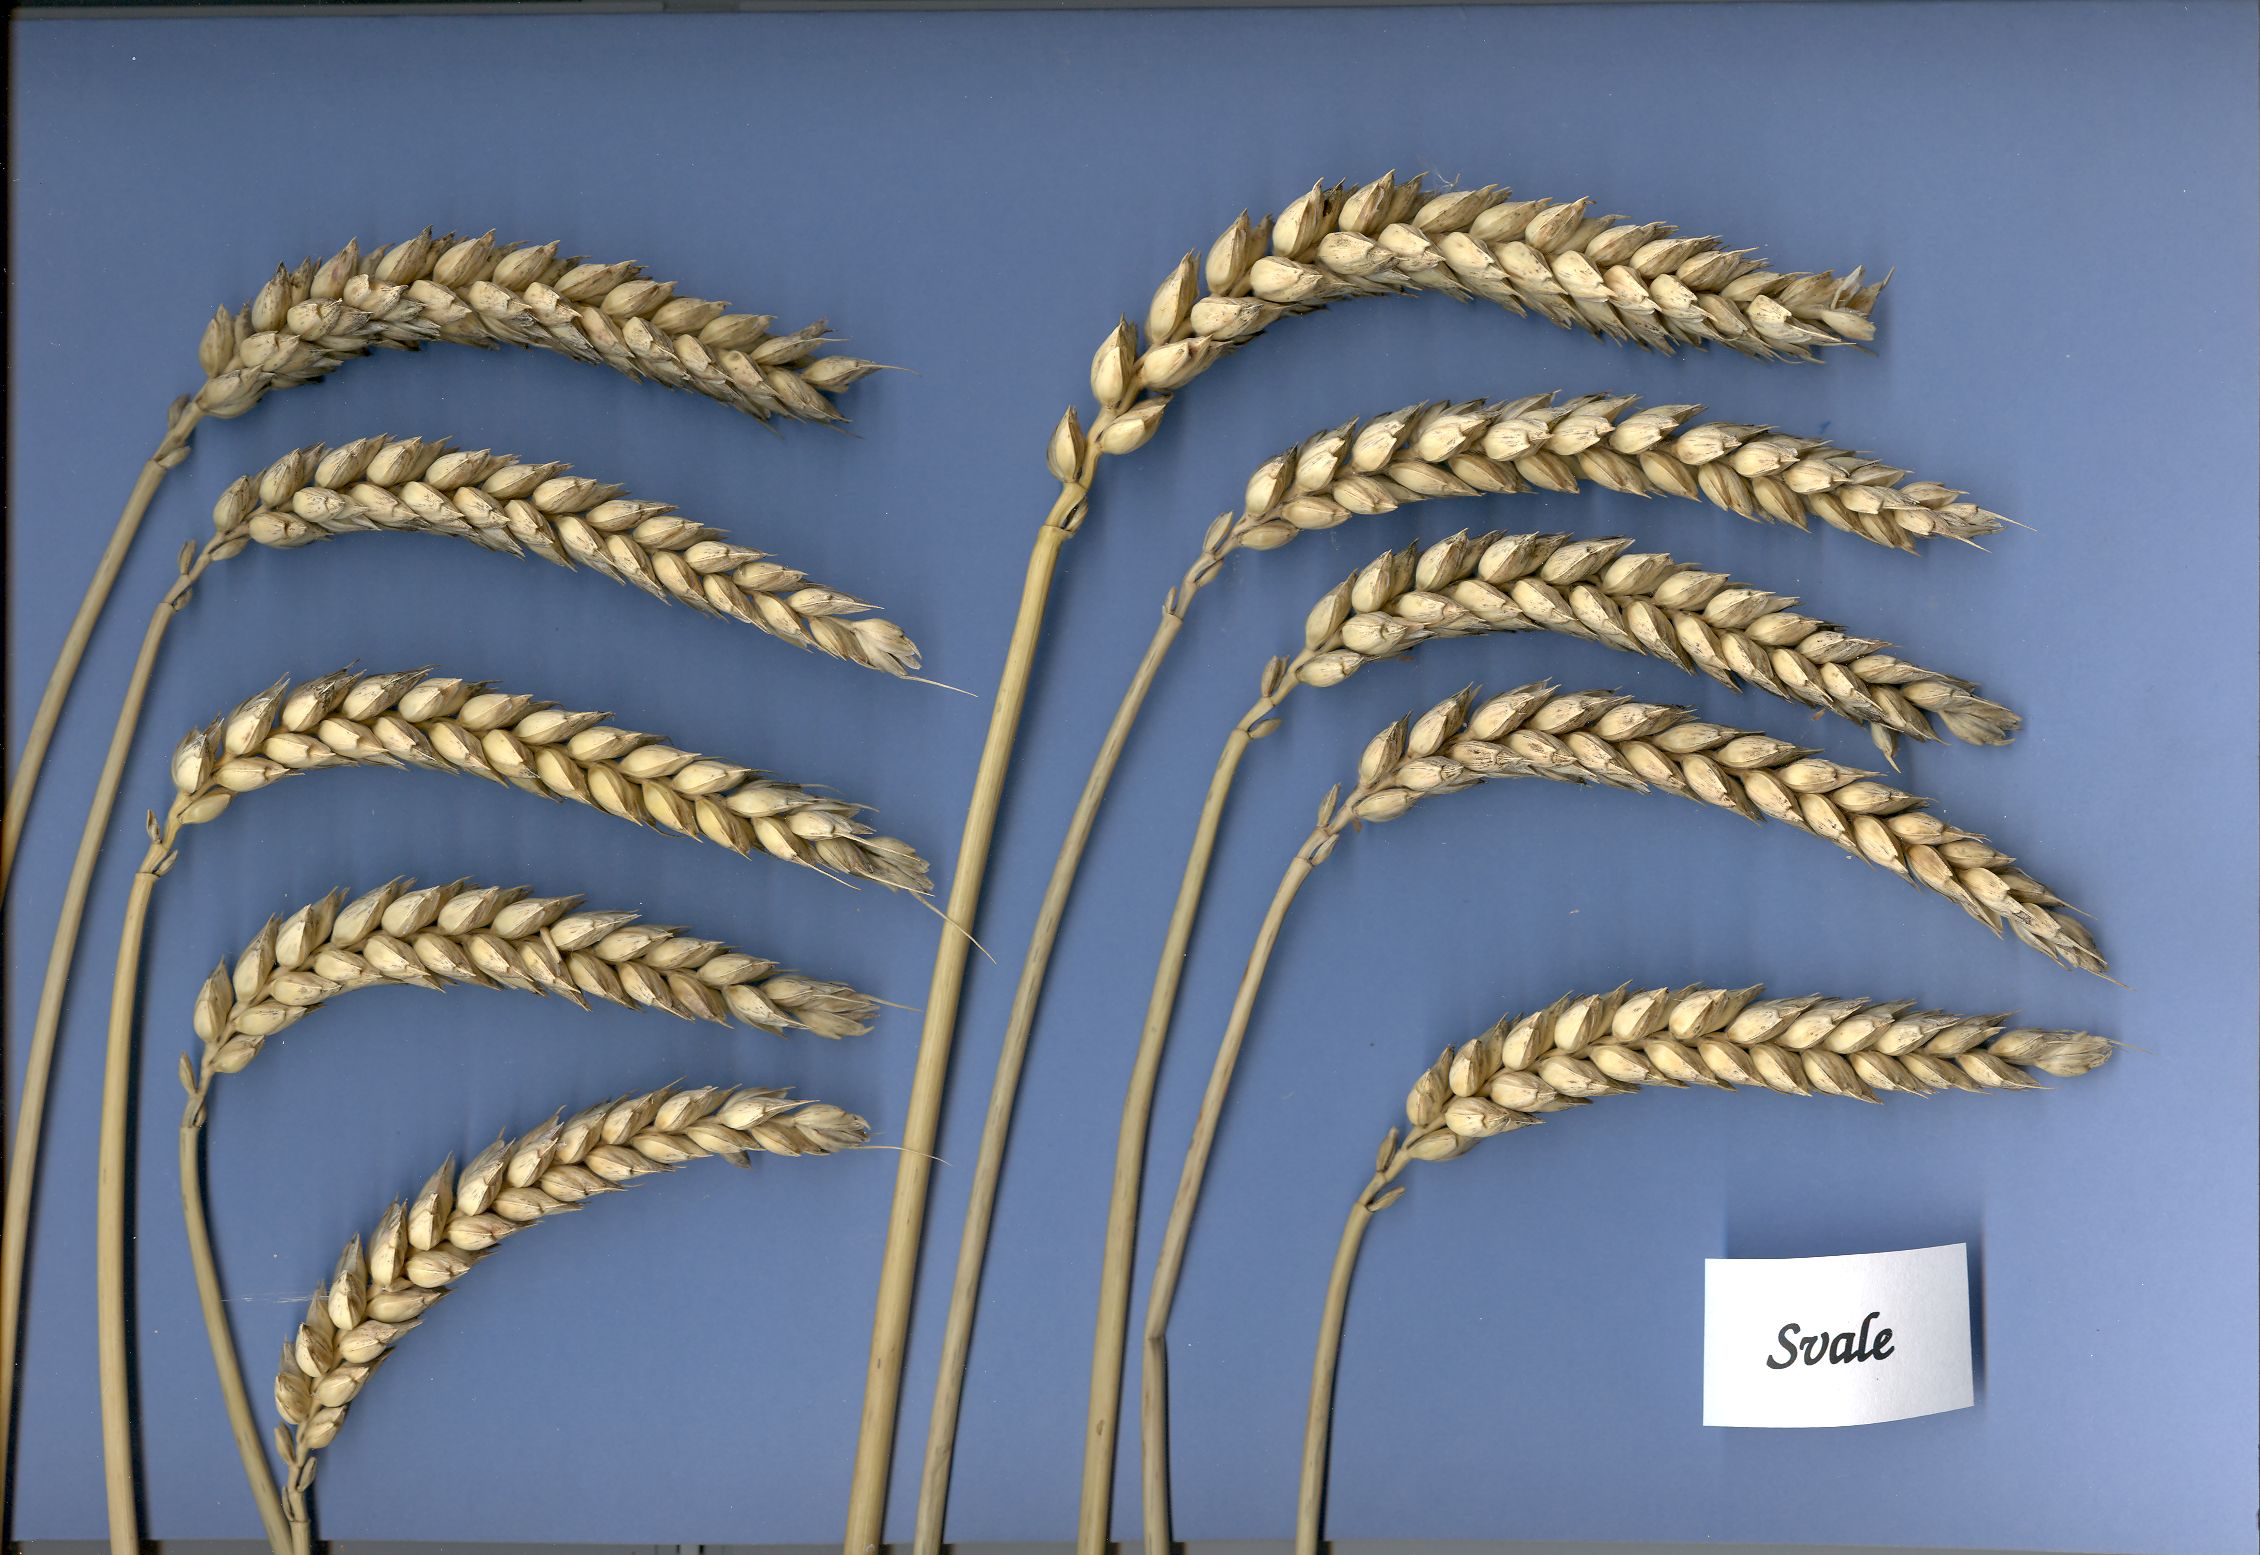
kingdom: Plantae
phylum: Tracheophyta
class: Liliopsida
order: Poales
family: Poaceae
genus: Triticum
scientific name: Triticum aestivum
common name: Common wheat
